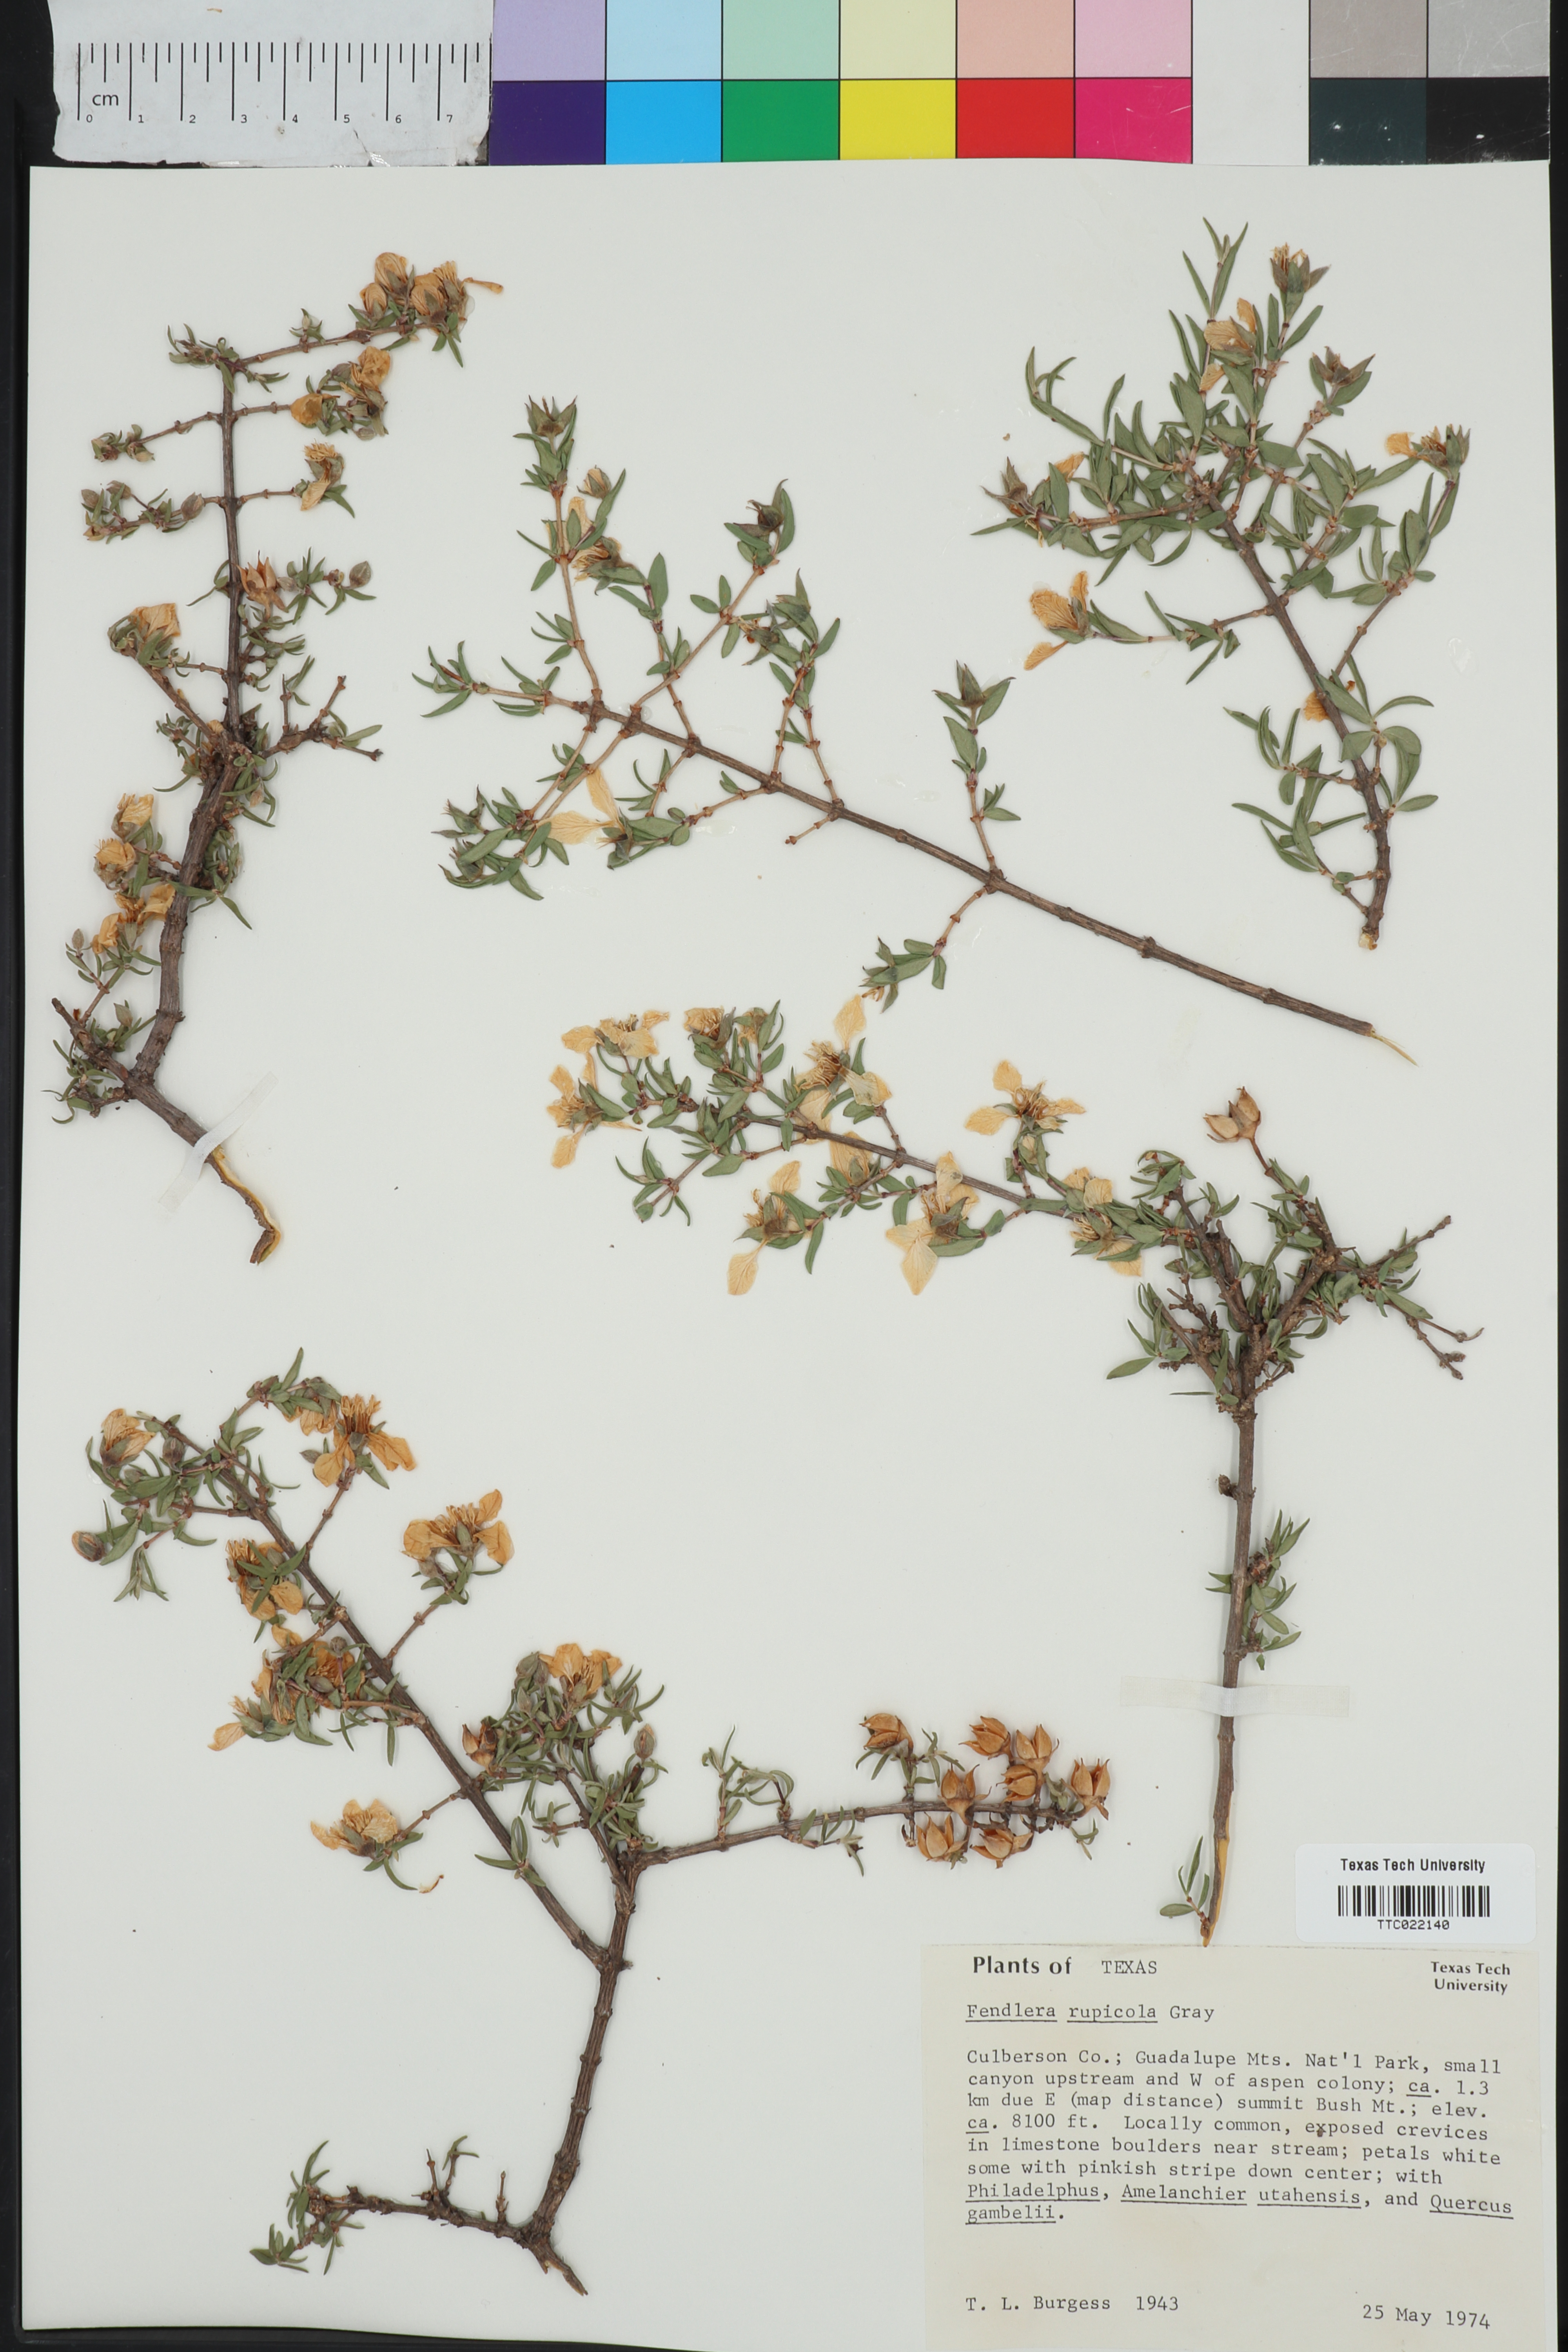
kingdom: Plantae
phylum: Tracheophyta
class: Magnoliopsida
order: Cornales
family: Hydrangeaceae
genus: Fendlera
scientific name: Fendlera rupicola
